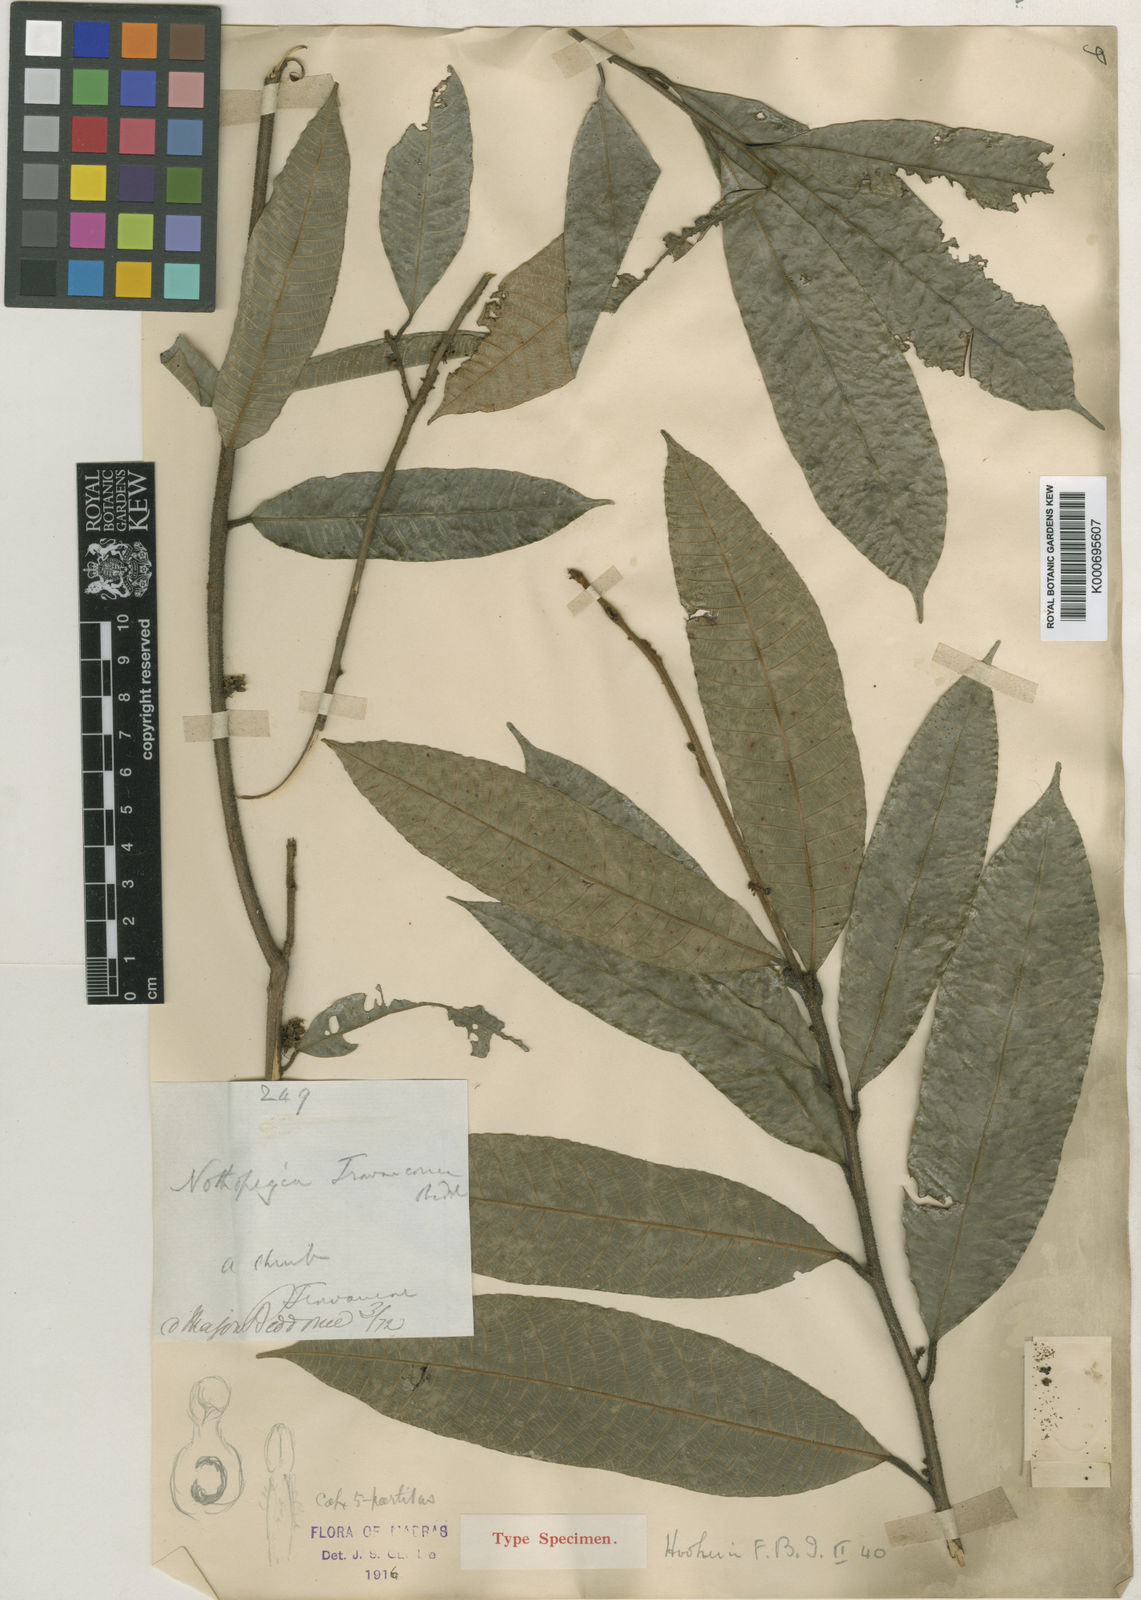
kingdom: Plantae
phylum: Tracheophyta
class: Magnoliopsida
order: Sapindales
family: Anacardiaceae
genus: Nothopegia
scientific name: Nothopegia travancorica
